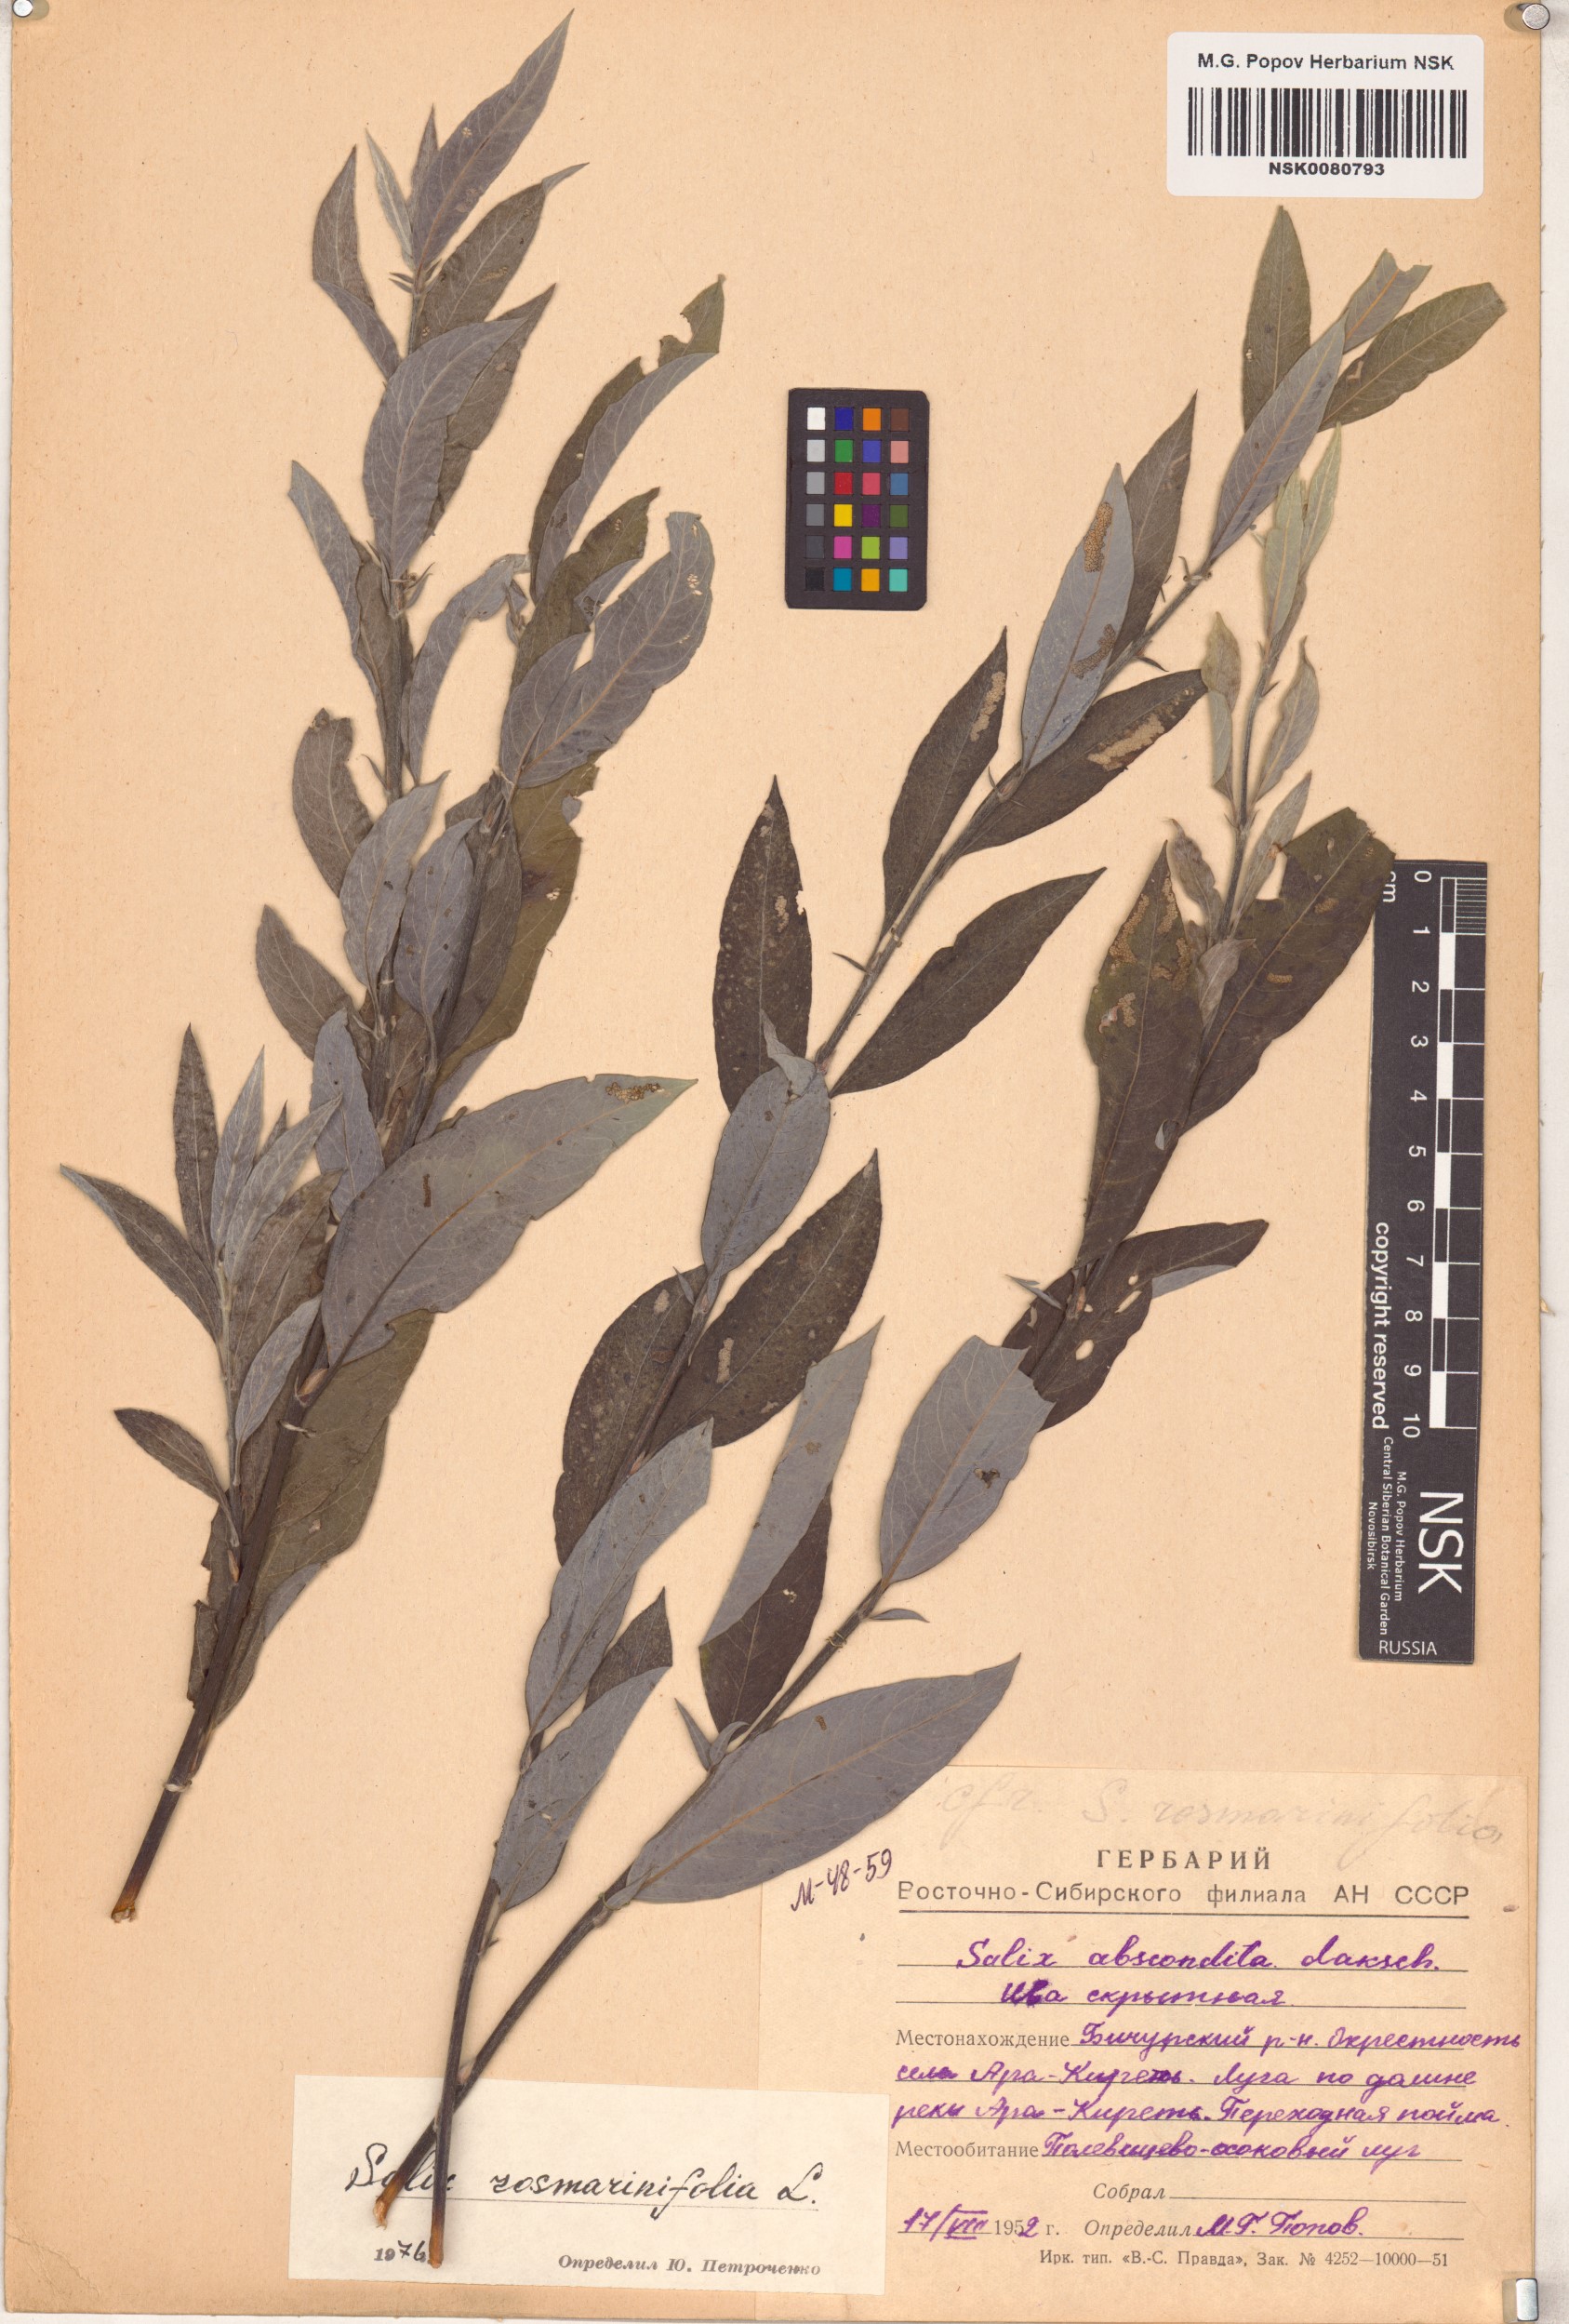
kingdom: Plantae
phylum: Tracheophyta
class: Magnoliopsida
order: Malpighiales
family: Salicaceae
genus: Salix
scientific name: Salix rosmarinifolia
